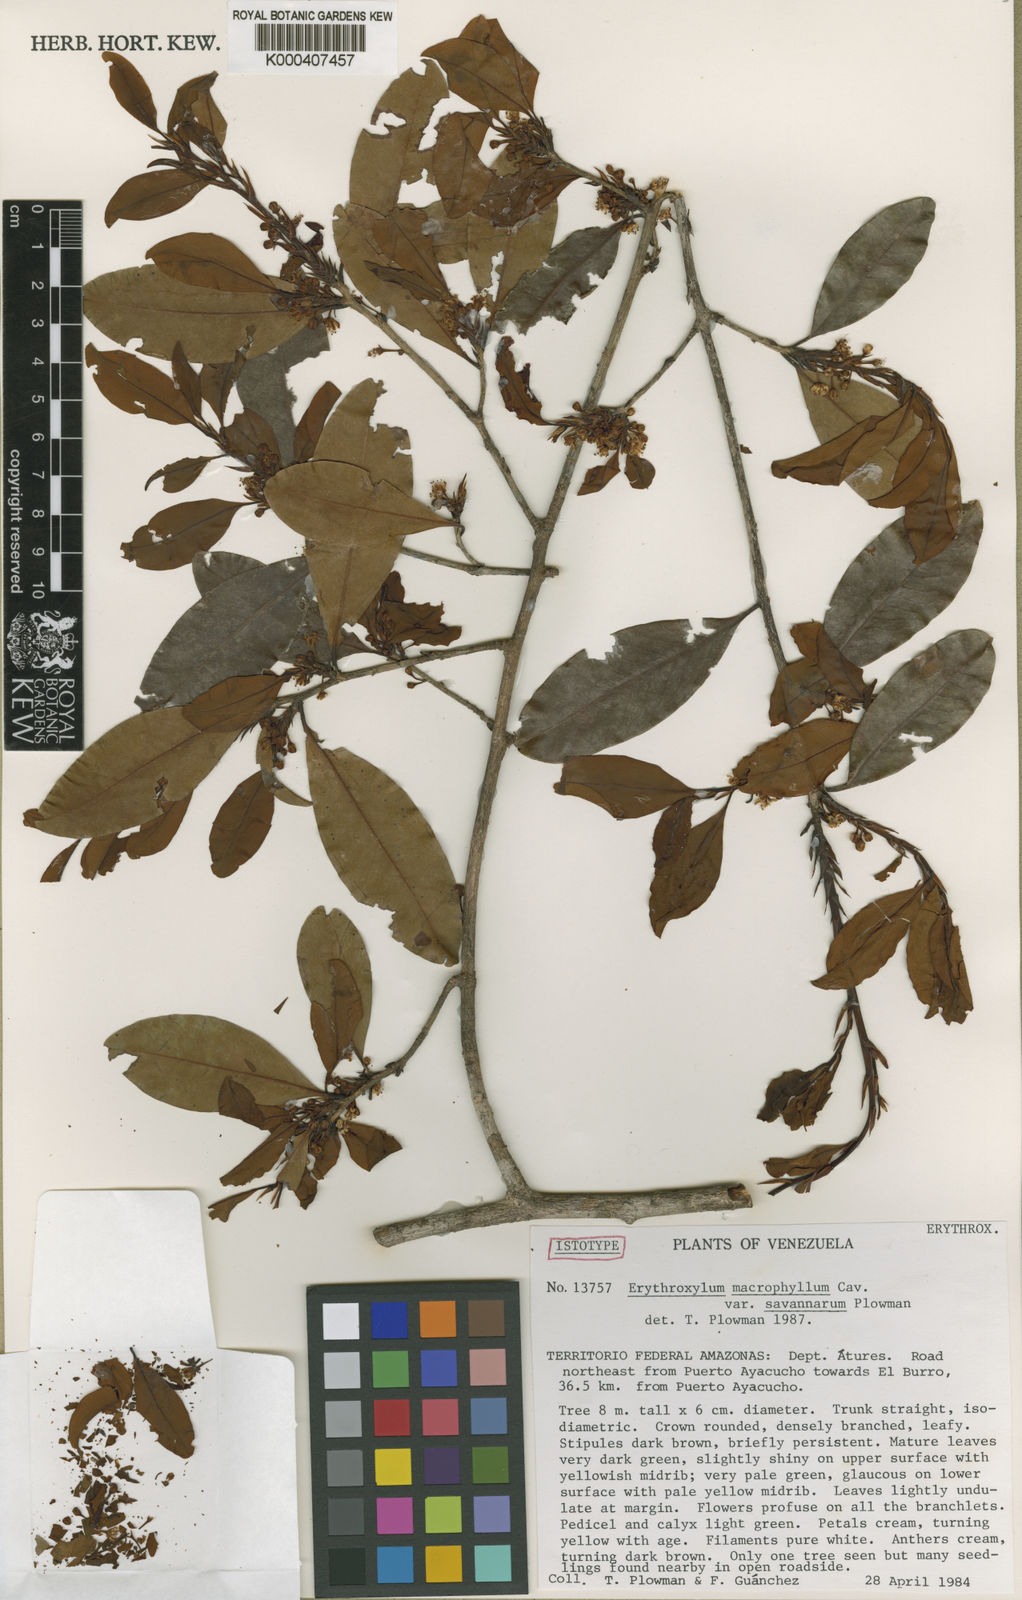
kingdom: Plantae
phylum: Tracheophyta
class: Magnoliopsida
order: Malpighiales
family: Erythroxylaceae
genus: Erythroxylum
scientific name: Erythroxylum savannarum
